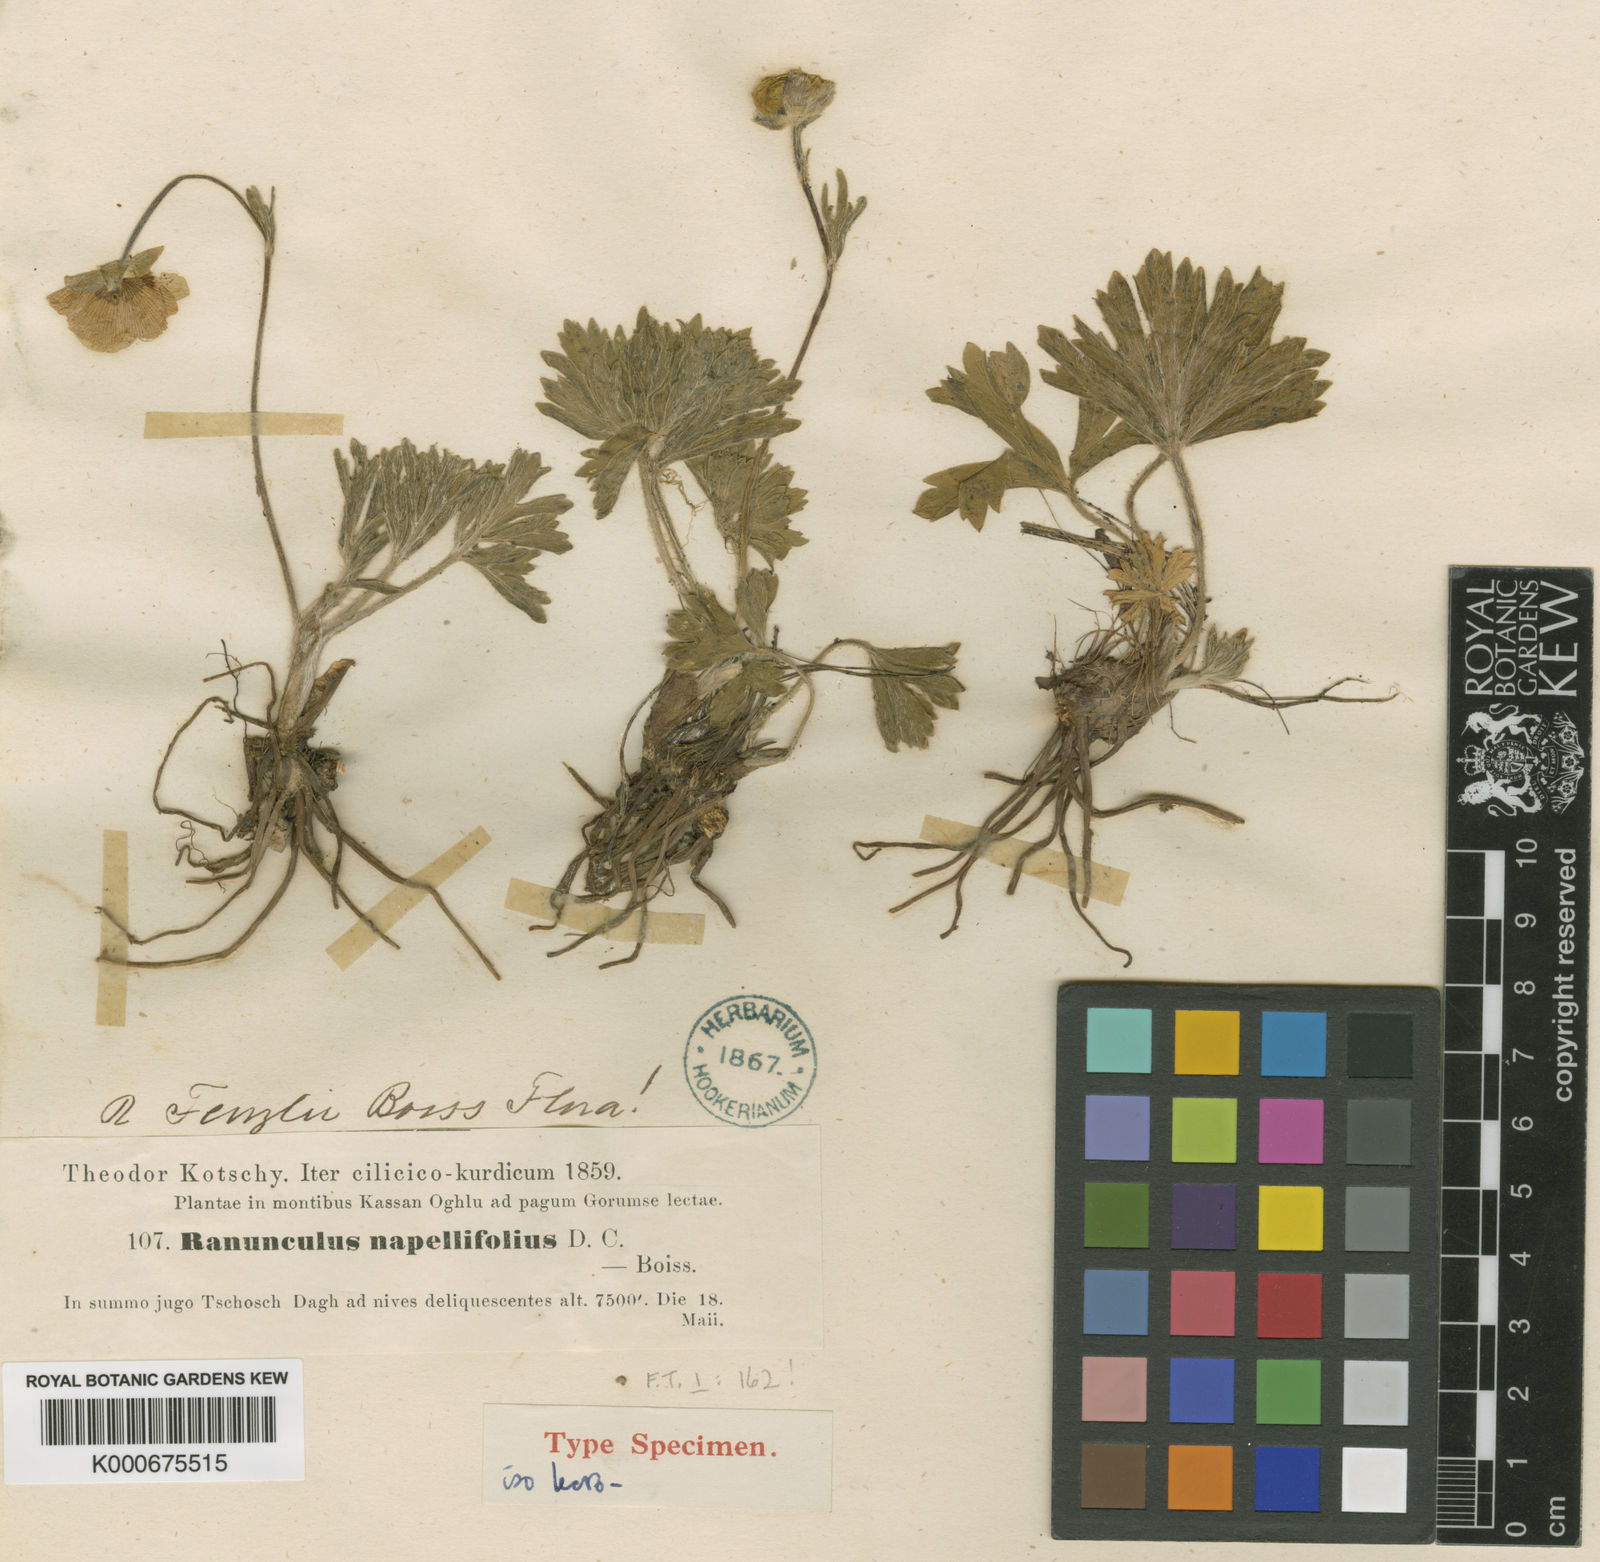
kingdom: Plantae
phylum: Tracheophyta
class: Magnoliopsida
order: Ranunculales
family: Ranunculaceae
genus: Ranunculus
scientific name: Ranunculus fenzlii
